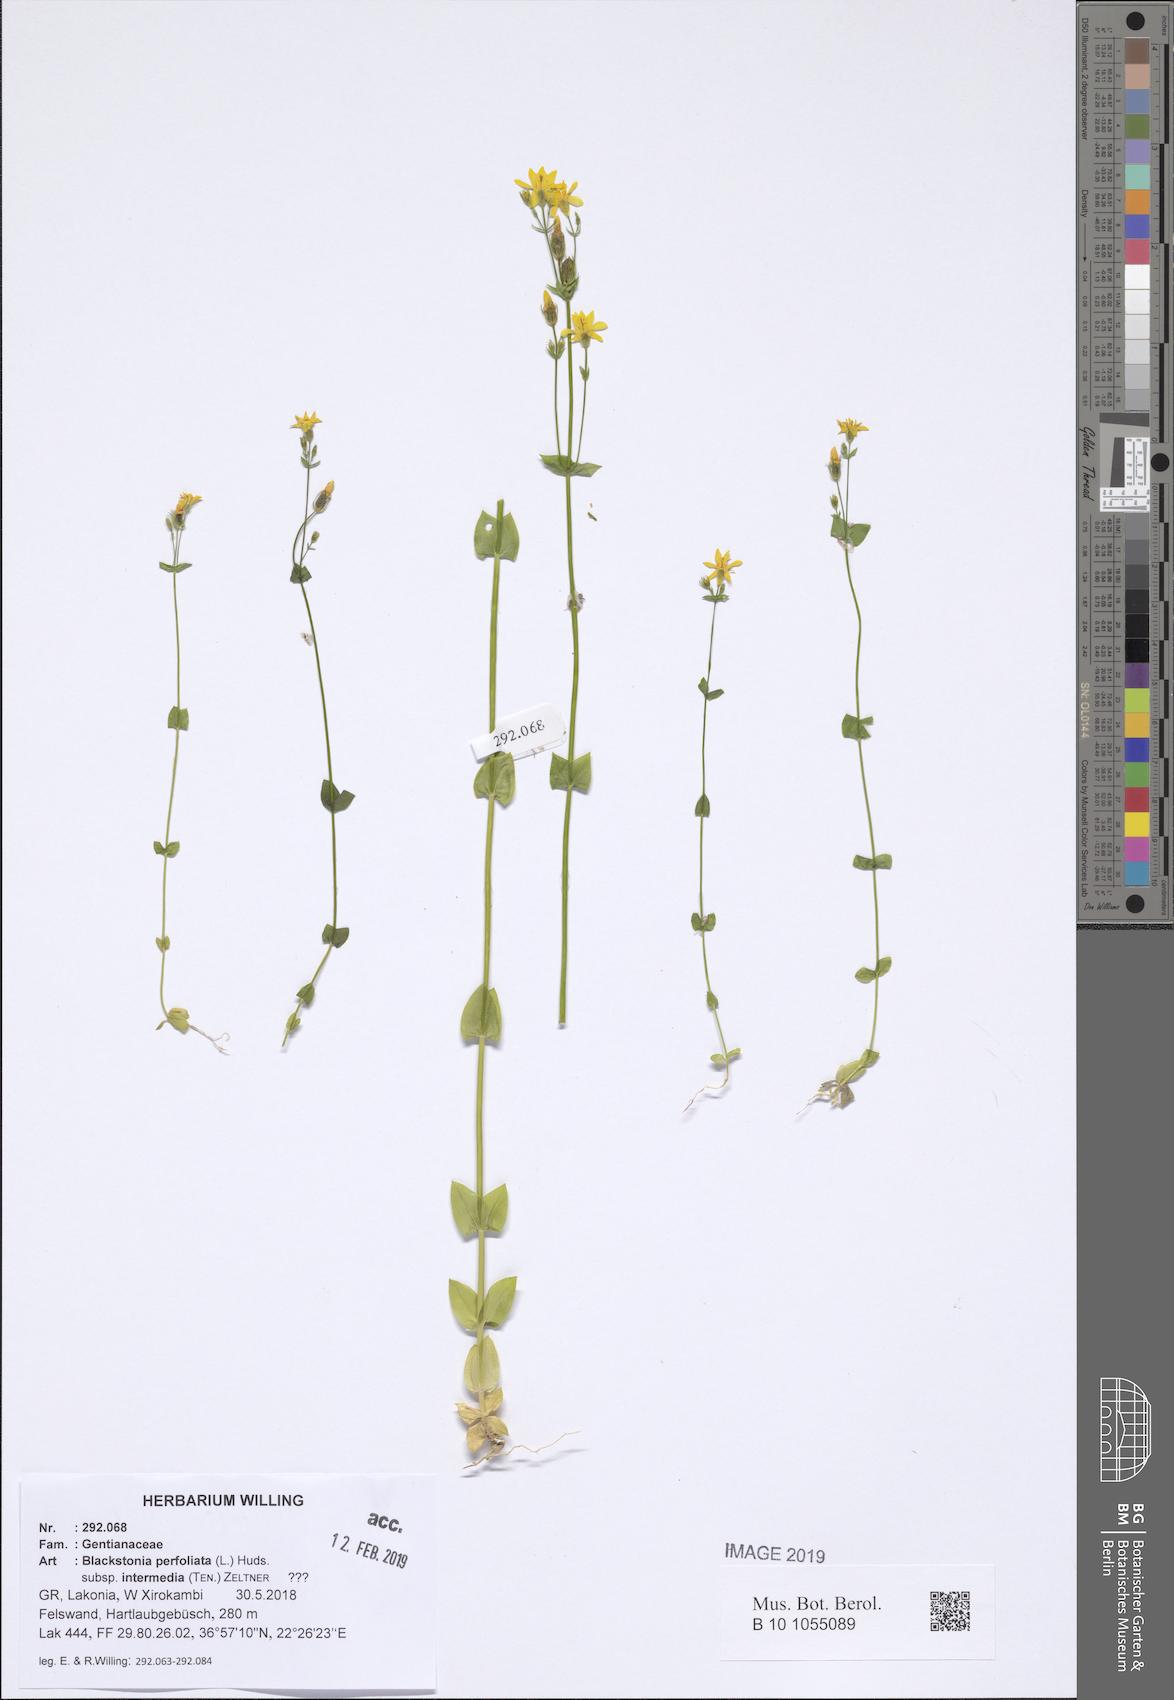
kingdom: Plantae
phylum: Tracheophyta
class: Magnoliopsida
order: Gentianales
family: Gentianaceae
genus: Blackstonia
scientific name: Blackstonia perfoliata
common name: Yellow-wort
